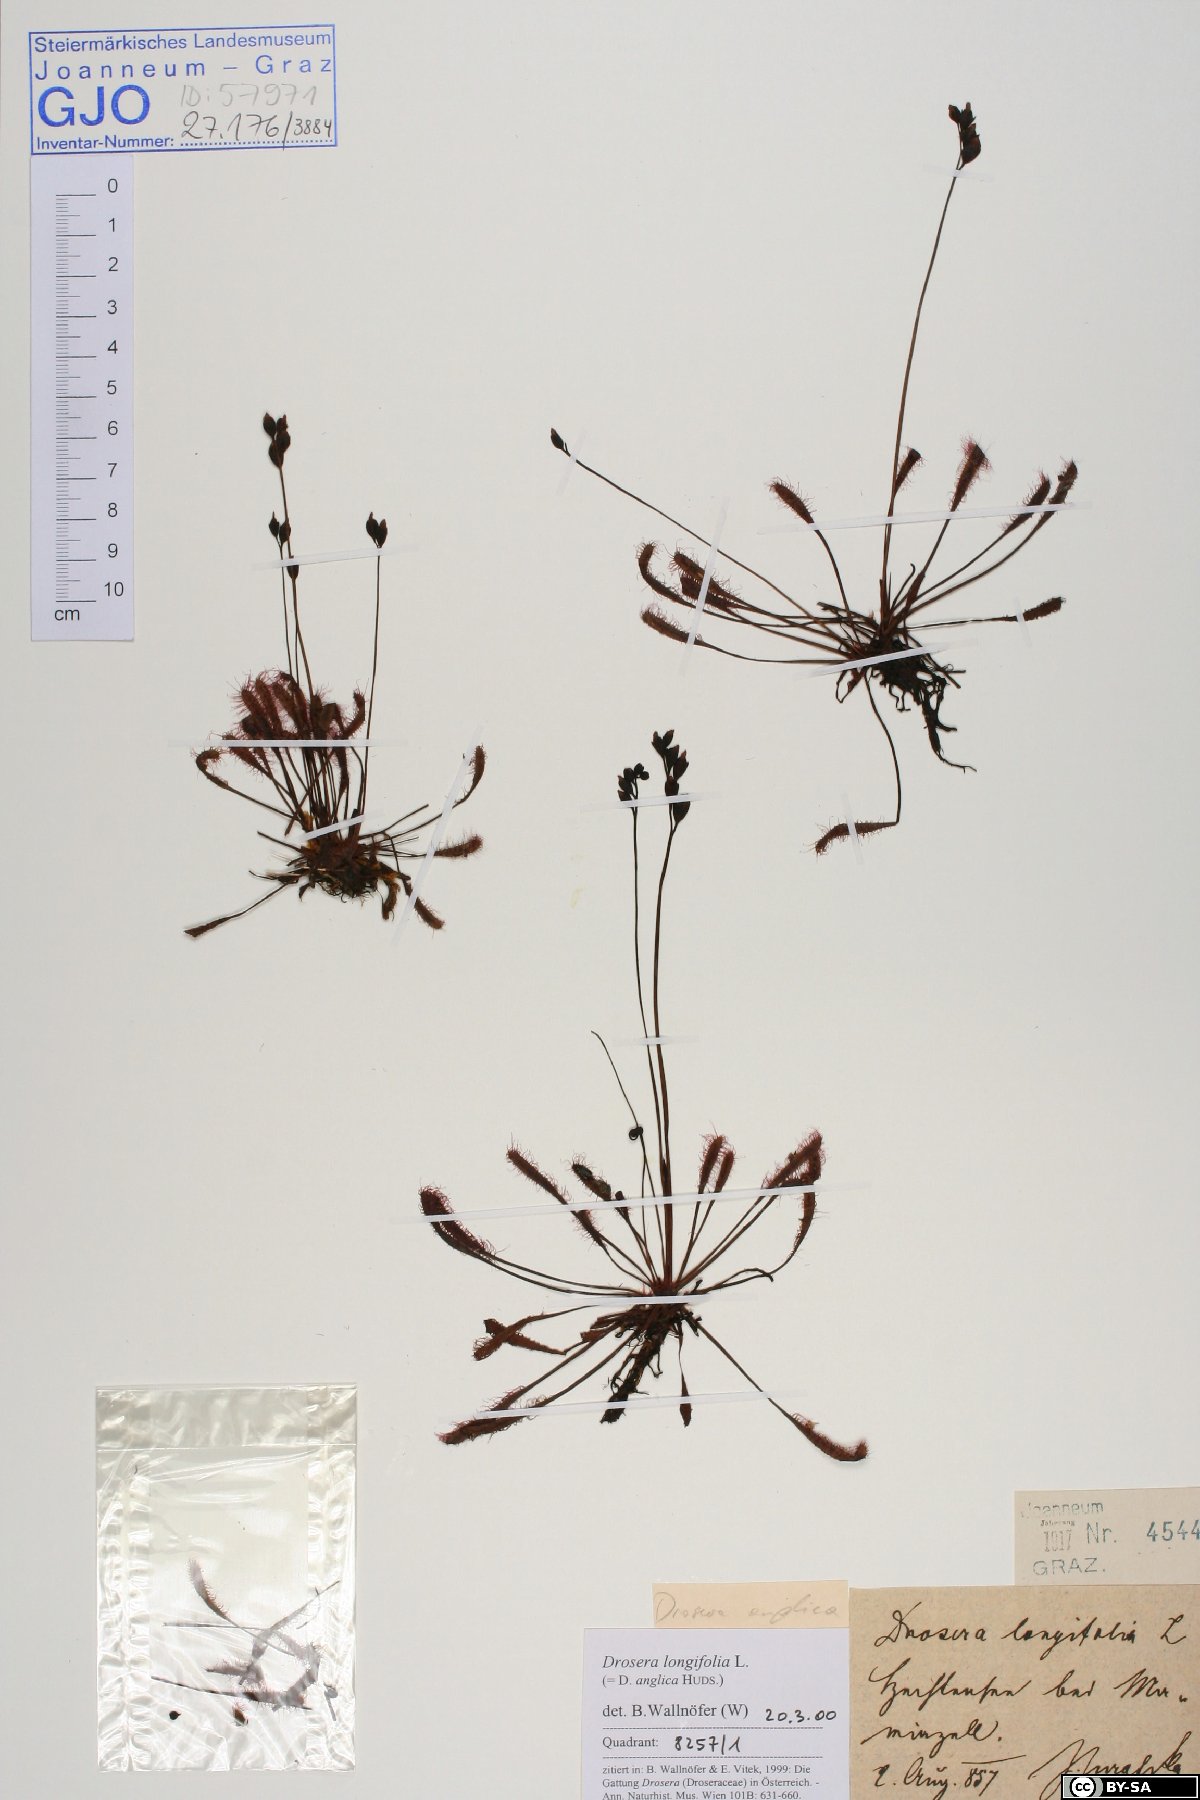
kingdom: Plantae
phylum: Tracheophyta
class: Magnoliopsida
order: Caryophyllales
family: Droseraceae
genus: Drosera
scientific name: Drosera anglica
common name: Great sundew
